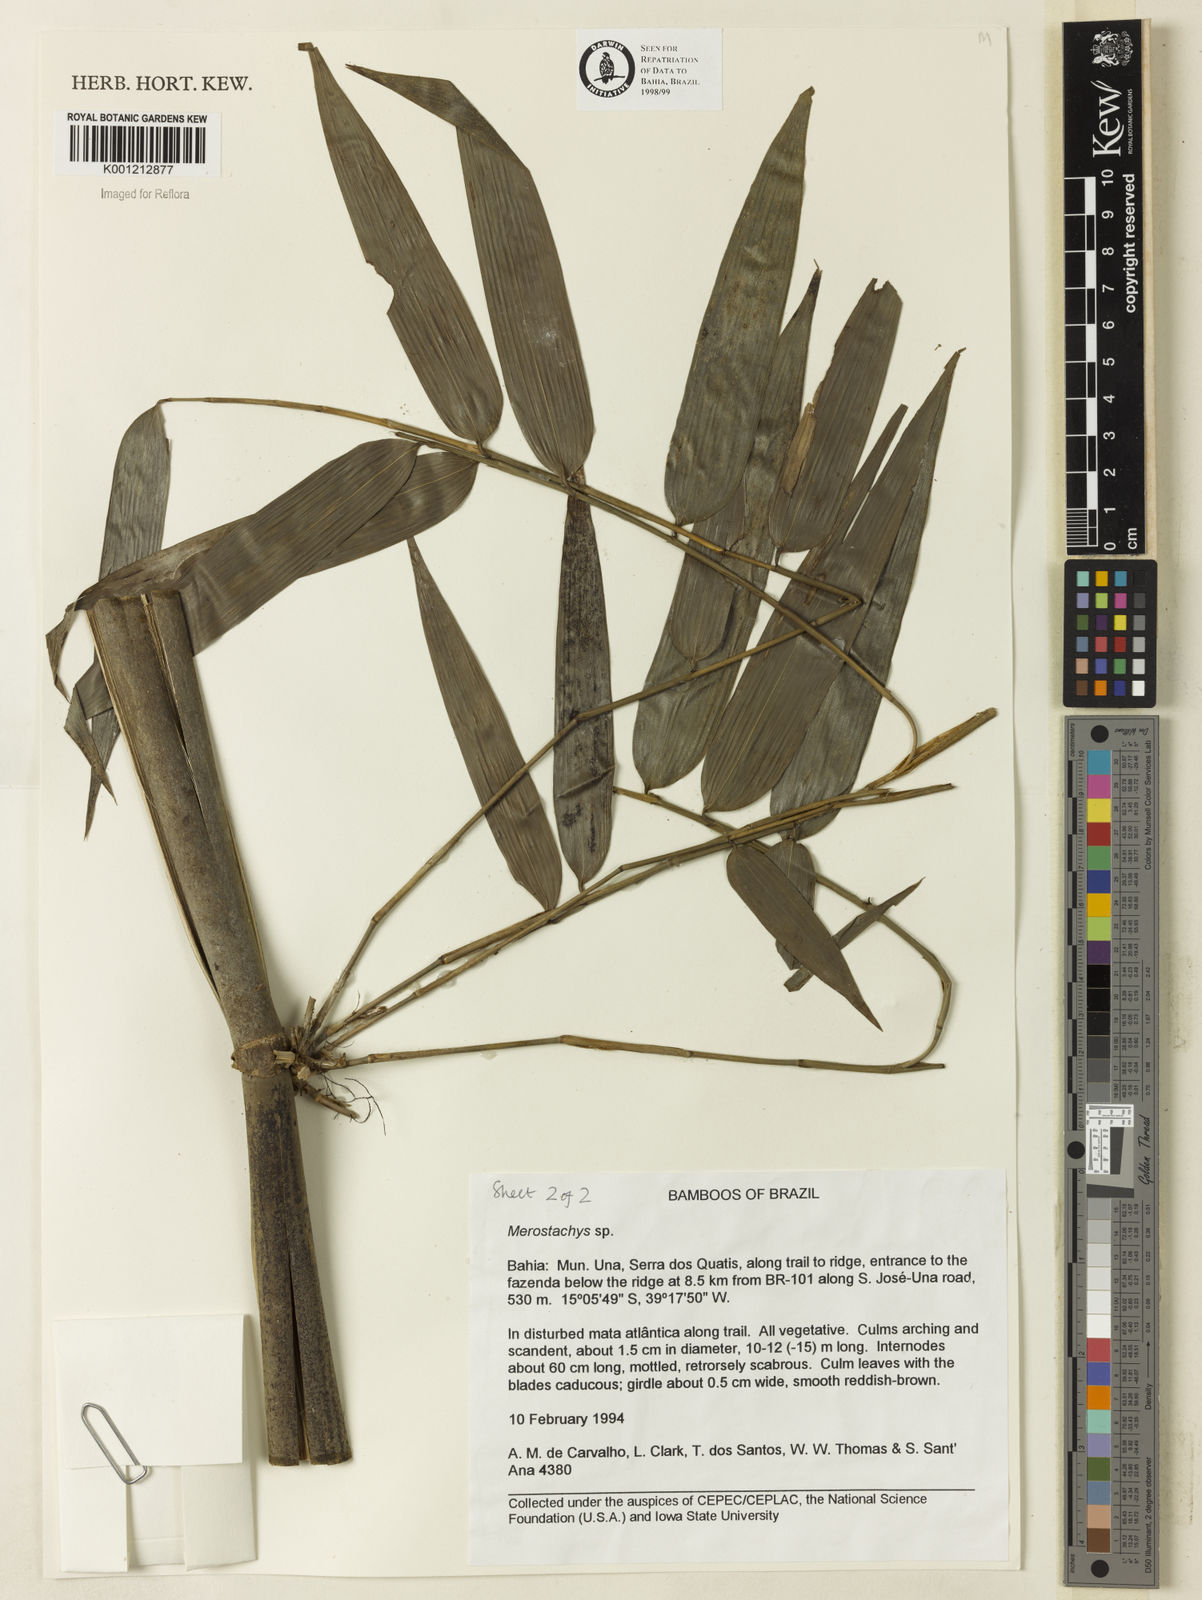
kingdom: Plantae
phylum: Tracheophyta
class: Liliopsida
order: Poales
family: Poaceae
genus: Merostachys
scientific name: Merostachys
